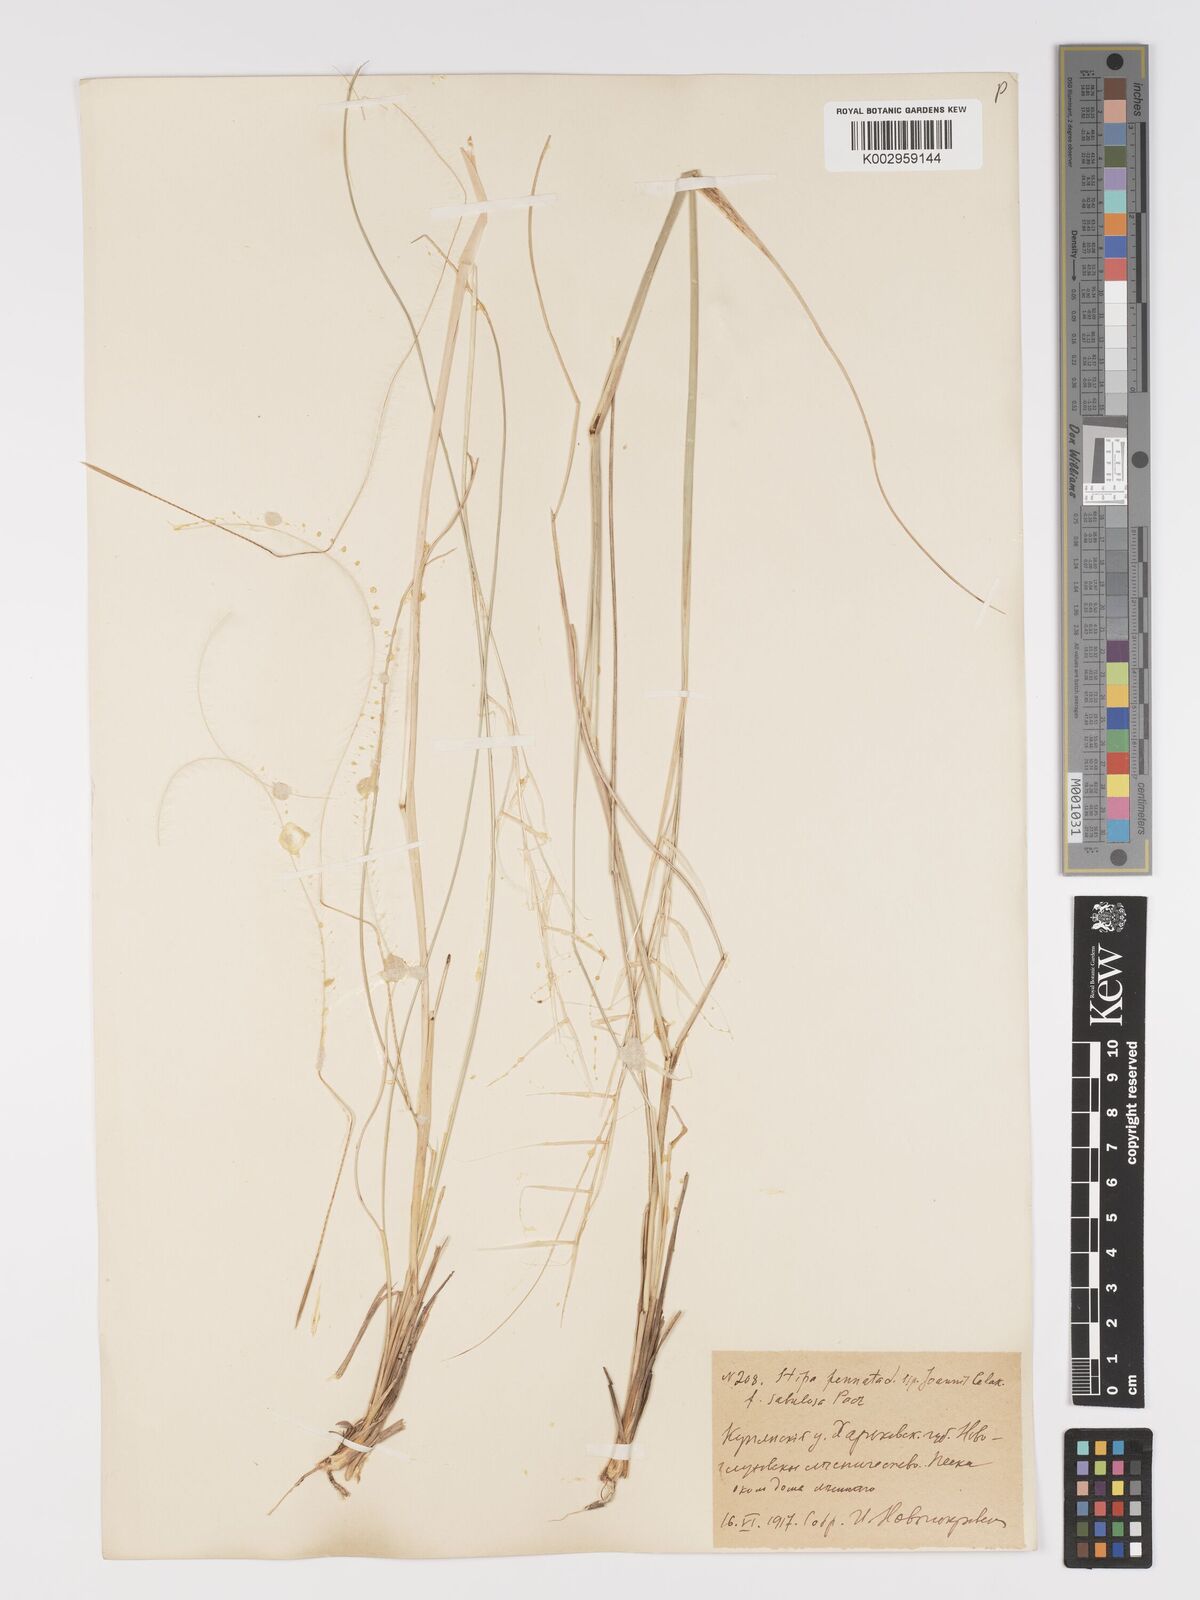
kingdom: Plantae
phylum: Tracheophyta
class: Liliopsida
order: Poales
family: Poaceae
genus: Stipa
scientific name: Stipa pennata
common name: European feather grass
